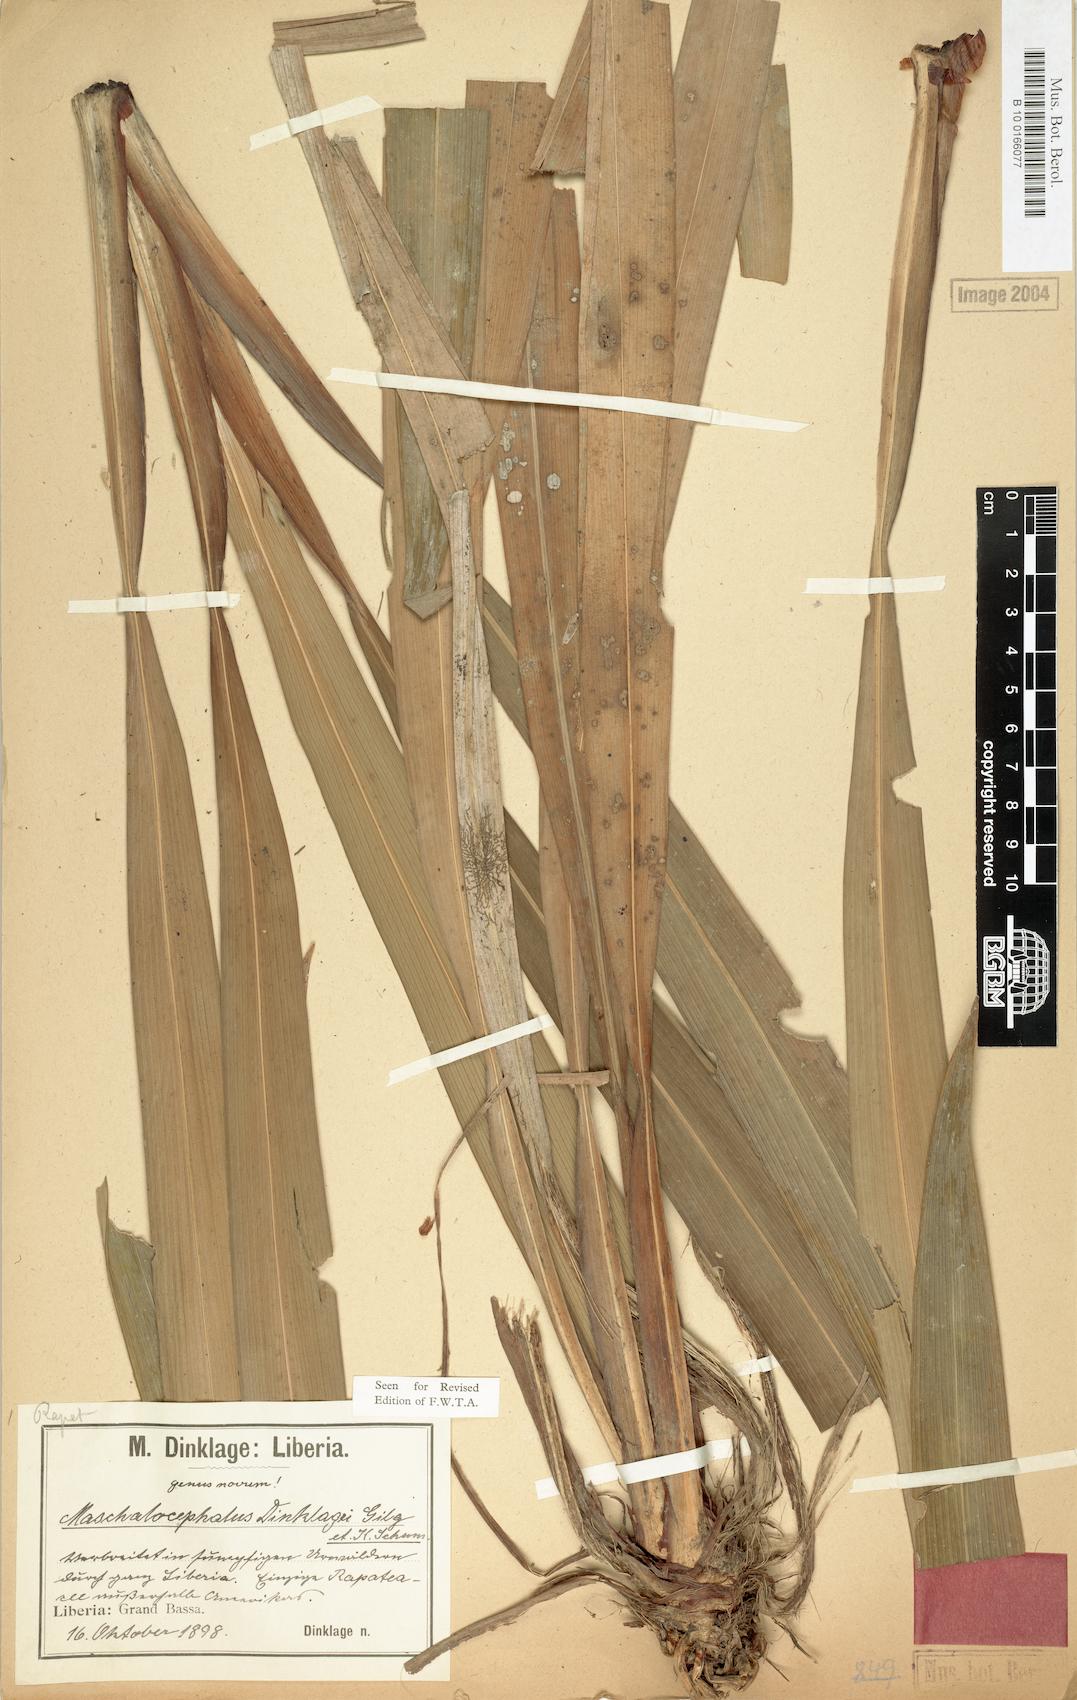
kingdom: Plantae
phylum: Tracheophyta
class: Liliopsida
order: Poales
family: Rapateaceae
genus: Maschalocephalus
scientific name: Maschalocephalus dinklagei
